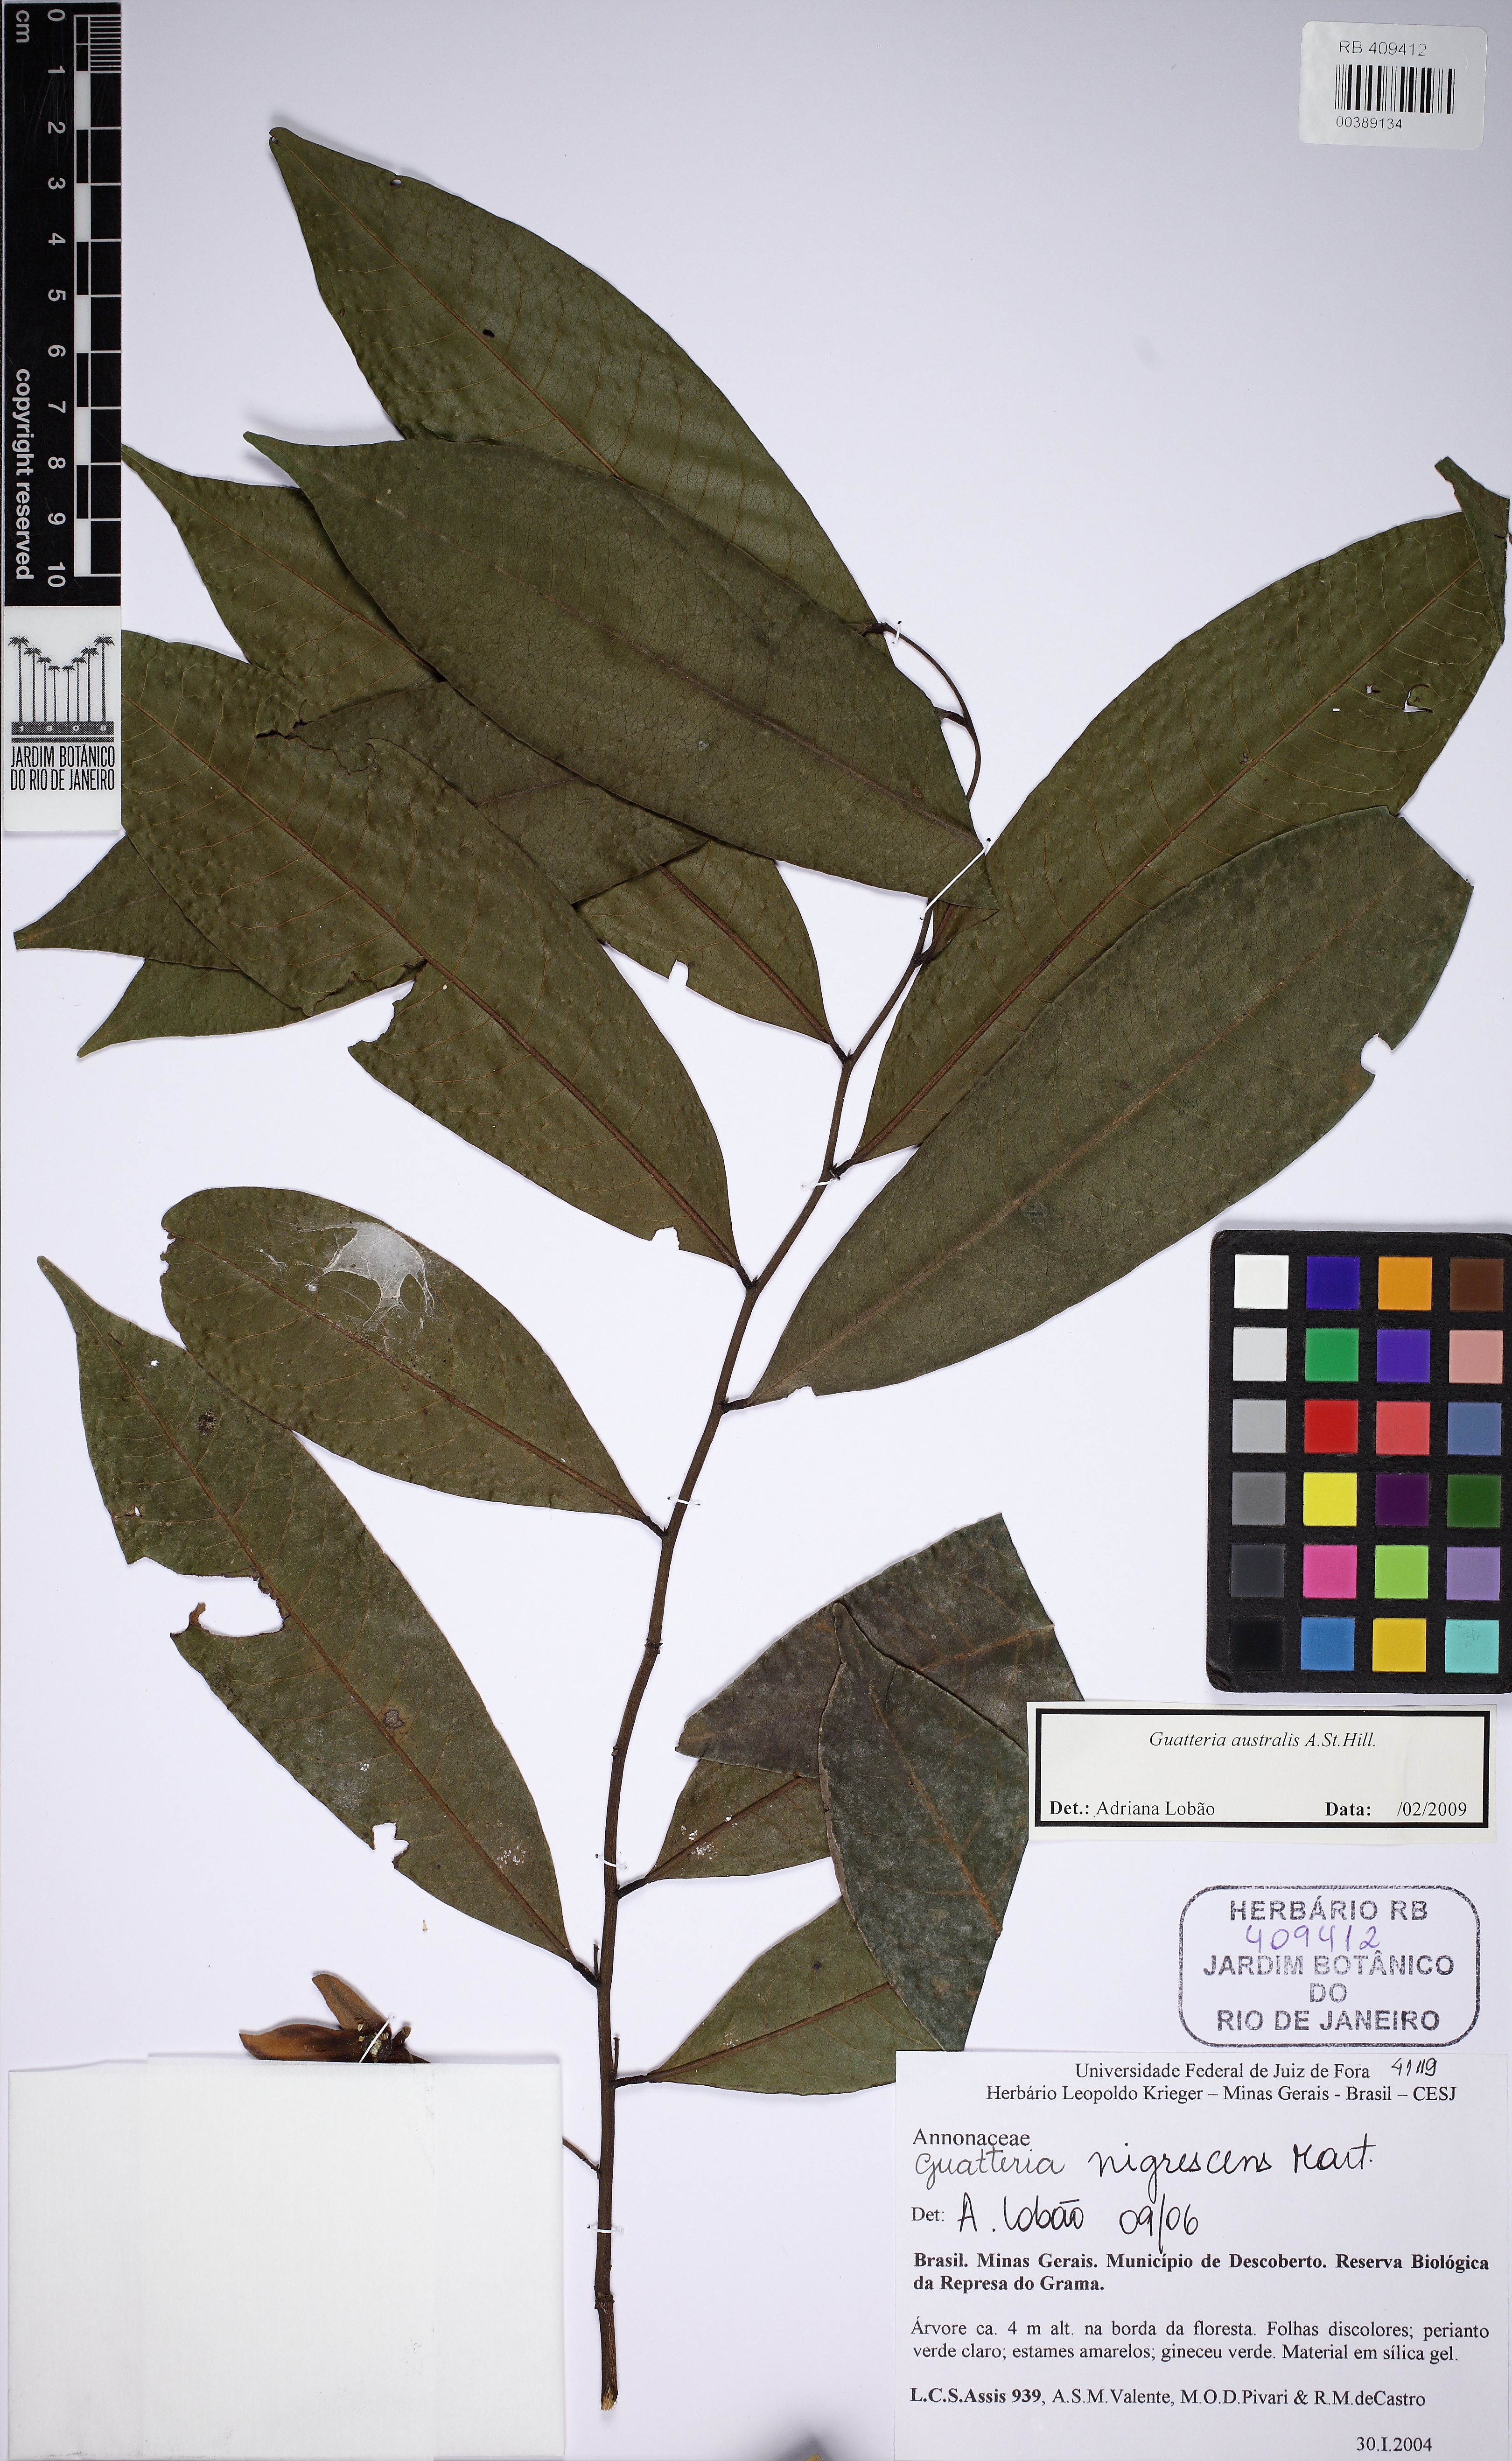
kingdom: Plantae
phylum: Tracheophyta
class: Magnoliopsida
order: Magnoliales
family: Annonaceae
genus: Guatteria
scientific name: Guatteria australis
